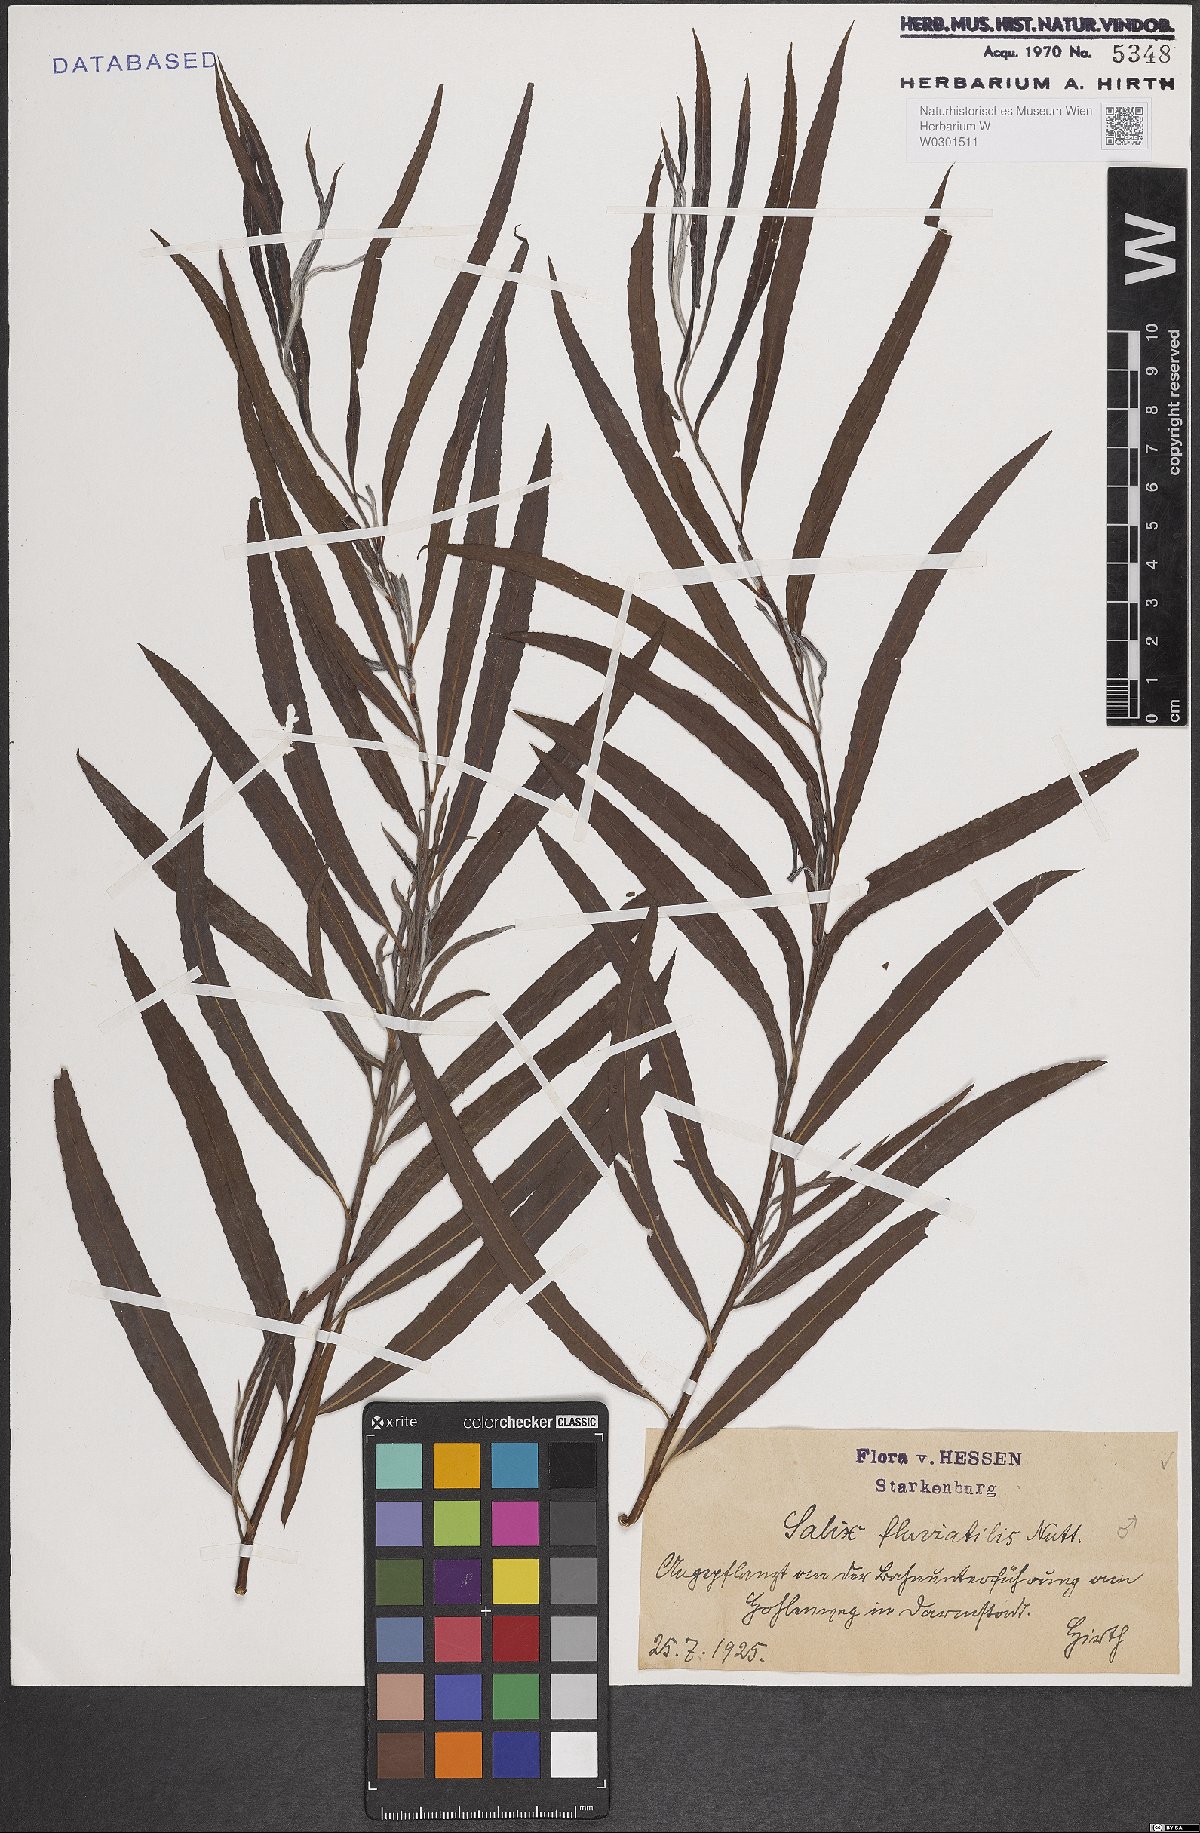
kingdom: Plantae
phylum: Tracheophyta
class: Magnoliopsida
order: Malpighiales
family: Salicaceae
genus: Salix
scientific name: Salix melanopsis
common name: Dusky willow
